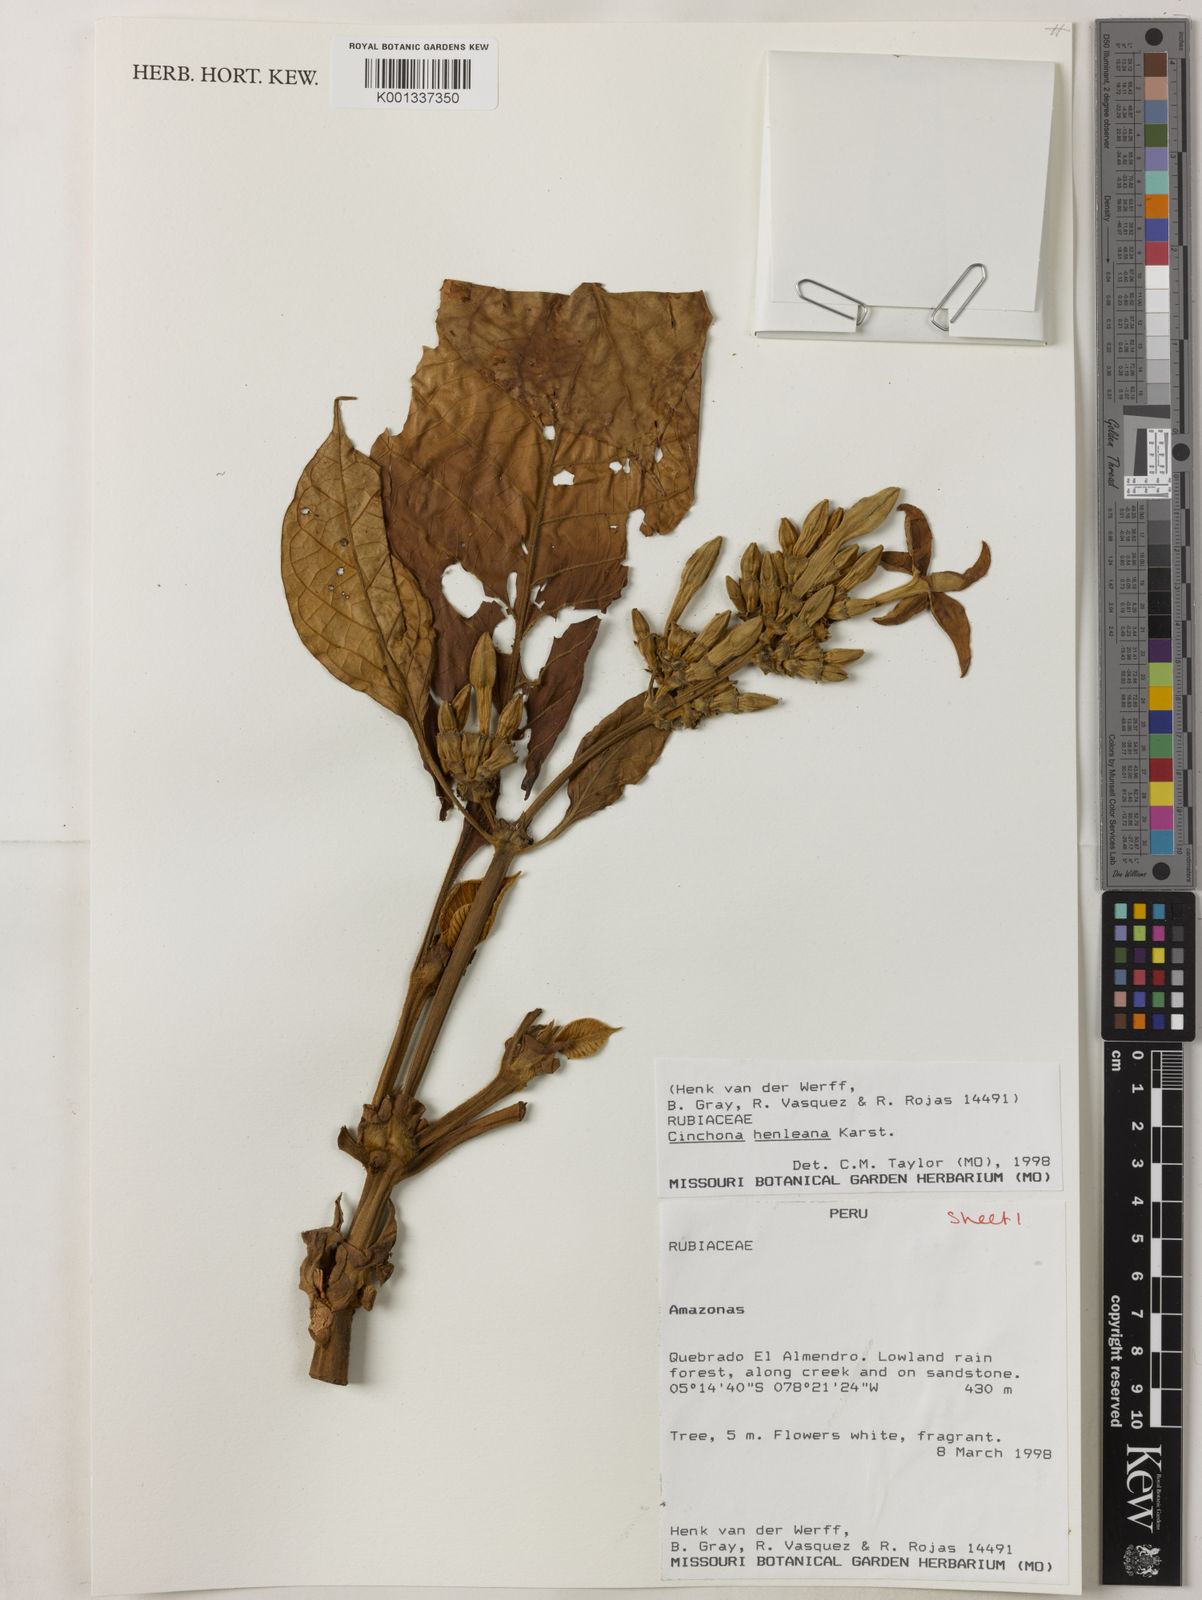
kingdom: Plantae
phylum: Tracheophyta
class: Magnoliopsida
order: Gentianales
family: Rubiaceae
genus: Ladenbergia
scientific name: Ladenbergia muzonensis
